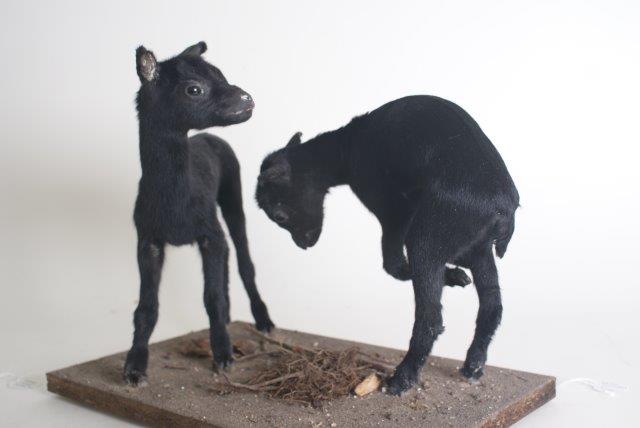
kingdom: Animalia
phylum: Chordata
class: Mammalia
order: Artiodactyla
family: Bovidae
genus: Capra
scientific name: Capra hircus
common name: Goat
